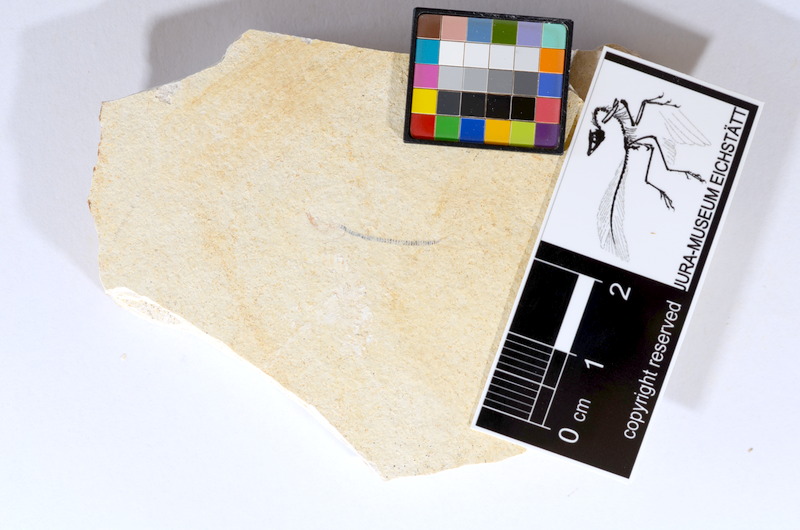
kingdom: Animalia
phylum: Chordata
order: Salmoniformes
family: Orthogonikleithridae
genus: Orthogonikleithrus
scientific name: Orthogonikleithrus hoelli
